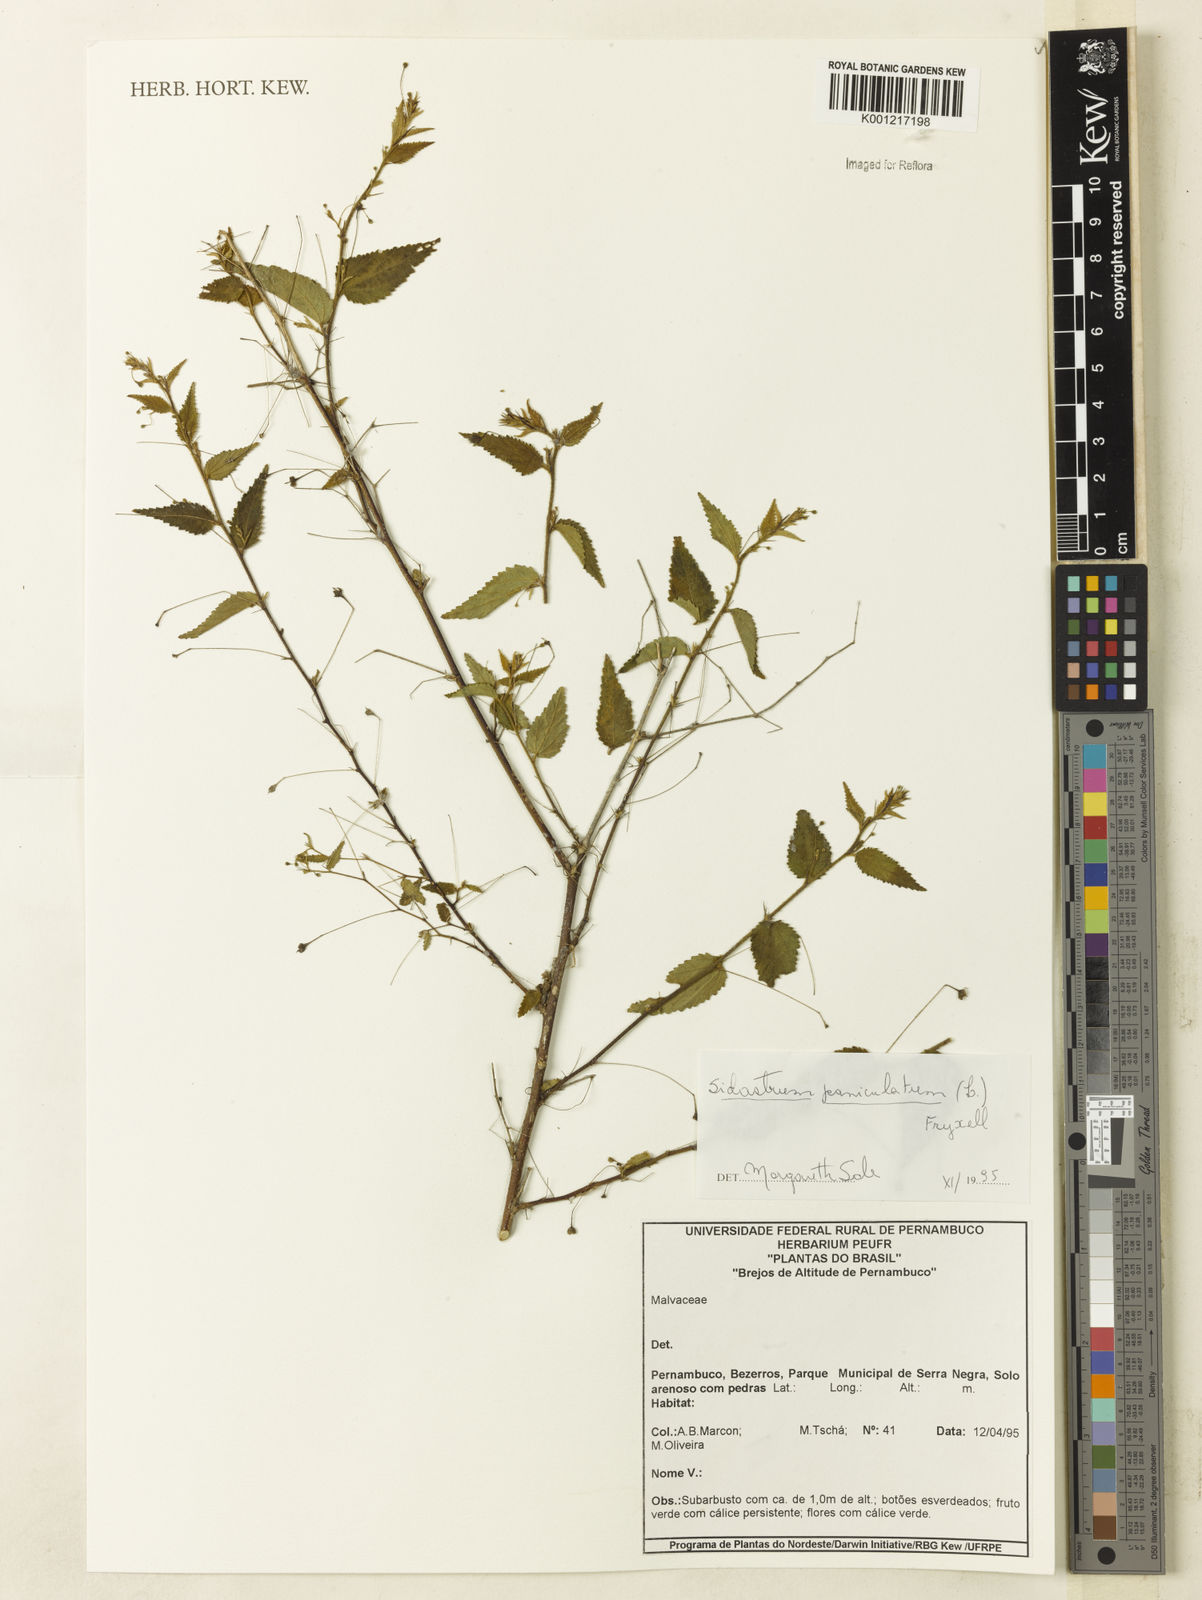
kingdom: Plantae
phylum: Tracheophyta
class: Magnoliopsida
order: Malvales
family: Malvaceae
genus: Sidastrum
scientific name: Sidastrum paniculatum
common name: Panicled sandmallow
